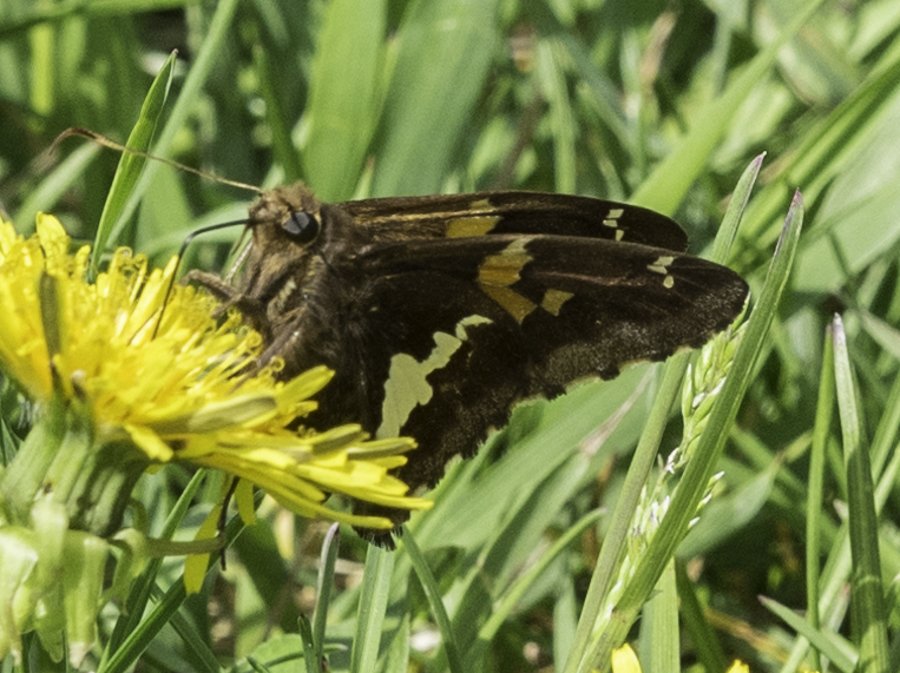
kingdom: Animalia
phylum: Arthropoda
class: Insecta
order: Lepidoptera
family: Hesperiidae
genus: Epargyreus
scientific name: Epargyreus clarus
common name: Silver-spotted Skipper
